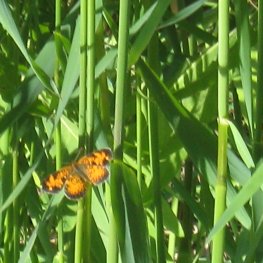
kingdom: Animalia
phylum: Arthropoda
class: Insecta
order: Lepidoptera
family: Nymphalidae
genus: Phyciodes
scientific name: Phyciodes tharos
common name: Pearl Crescent
